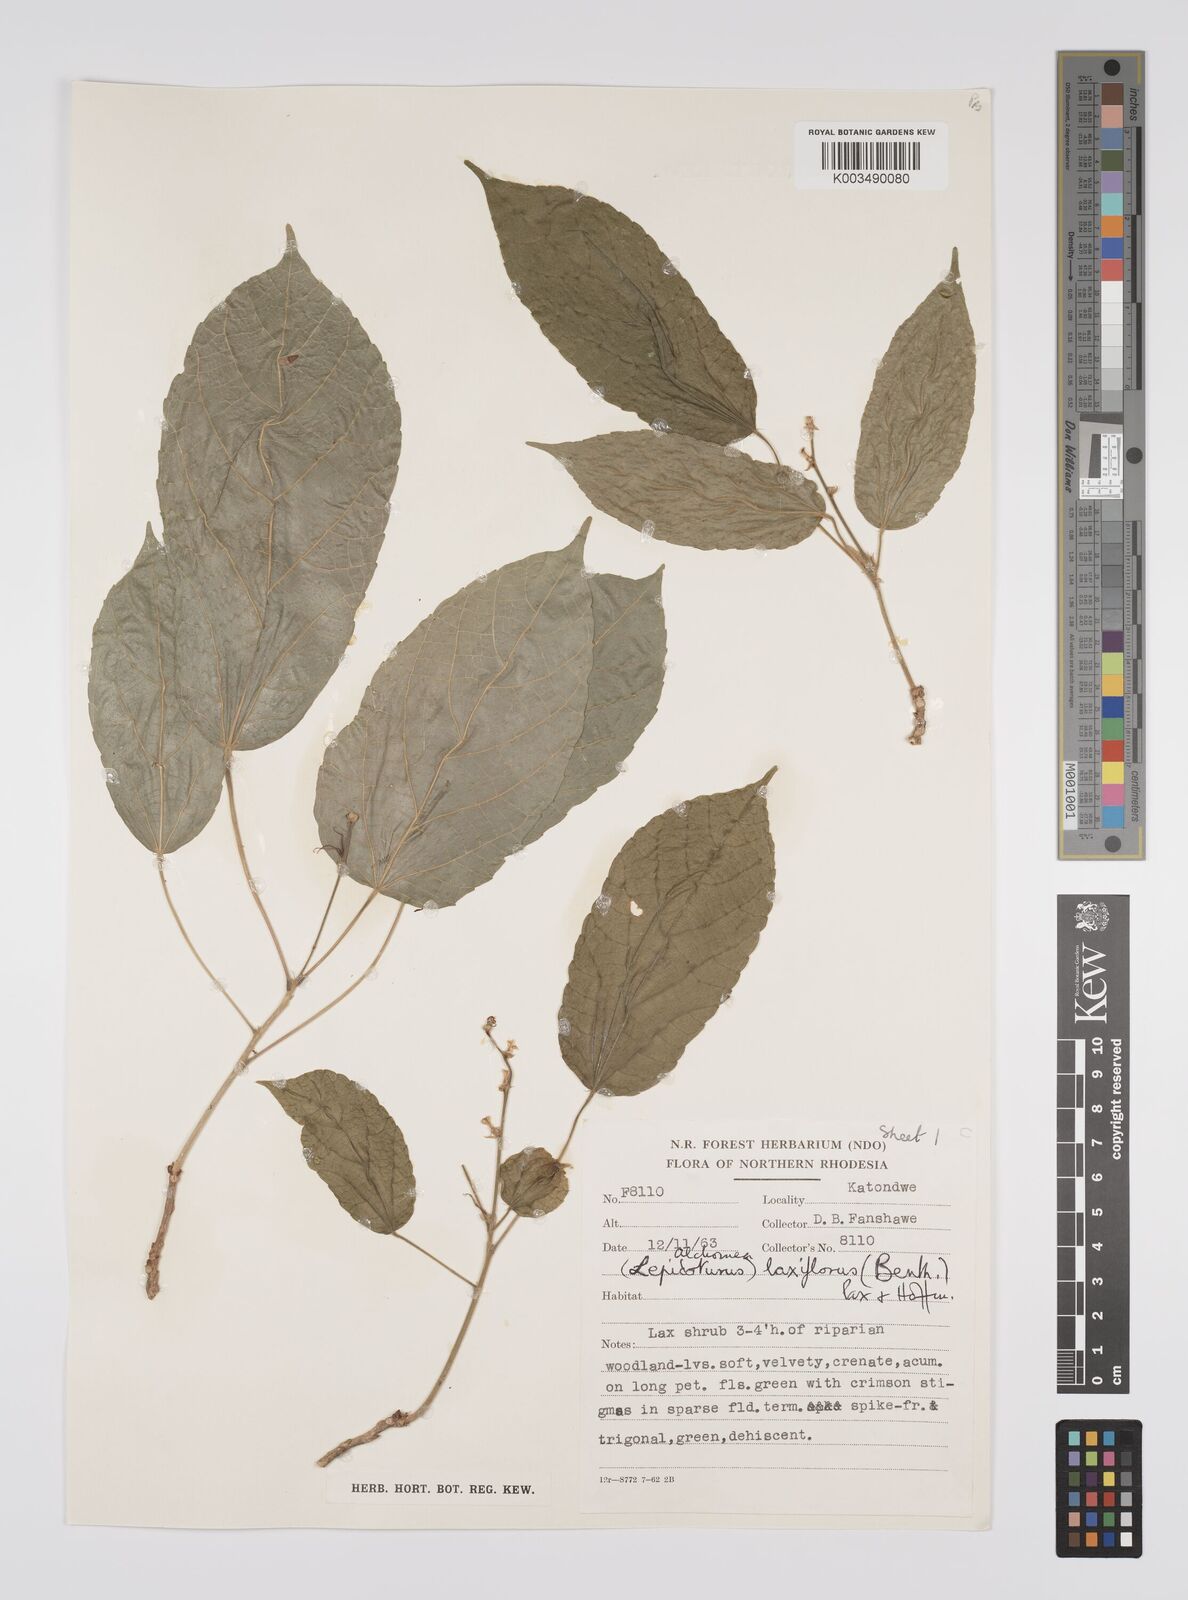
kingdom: Plantae
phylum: Tracheophyta
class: Magnoliopsida
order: Malpighiales
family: Euphorbiaceae
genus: Alchornea
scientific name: Alchornea laxiflora
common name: Lowveld bead-string
